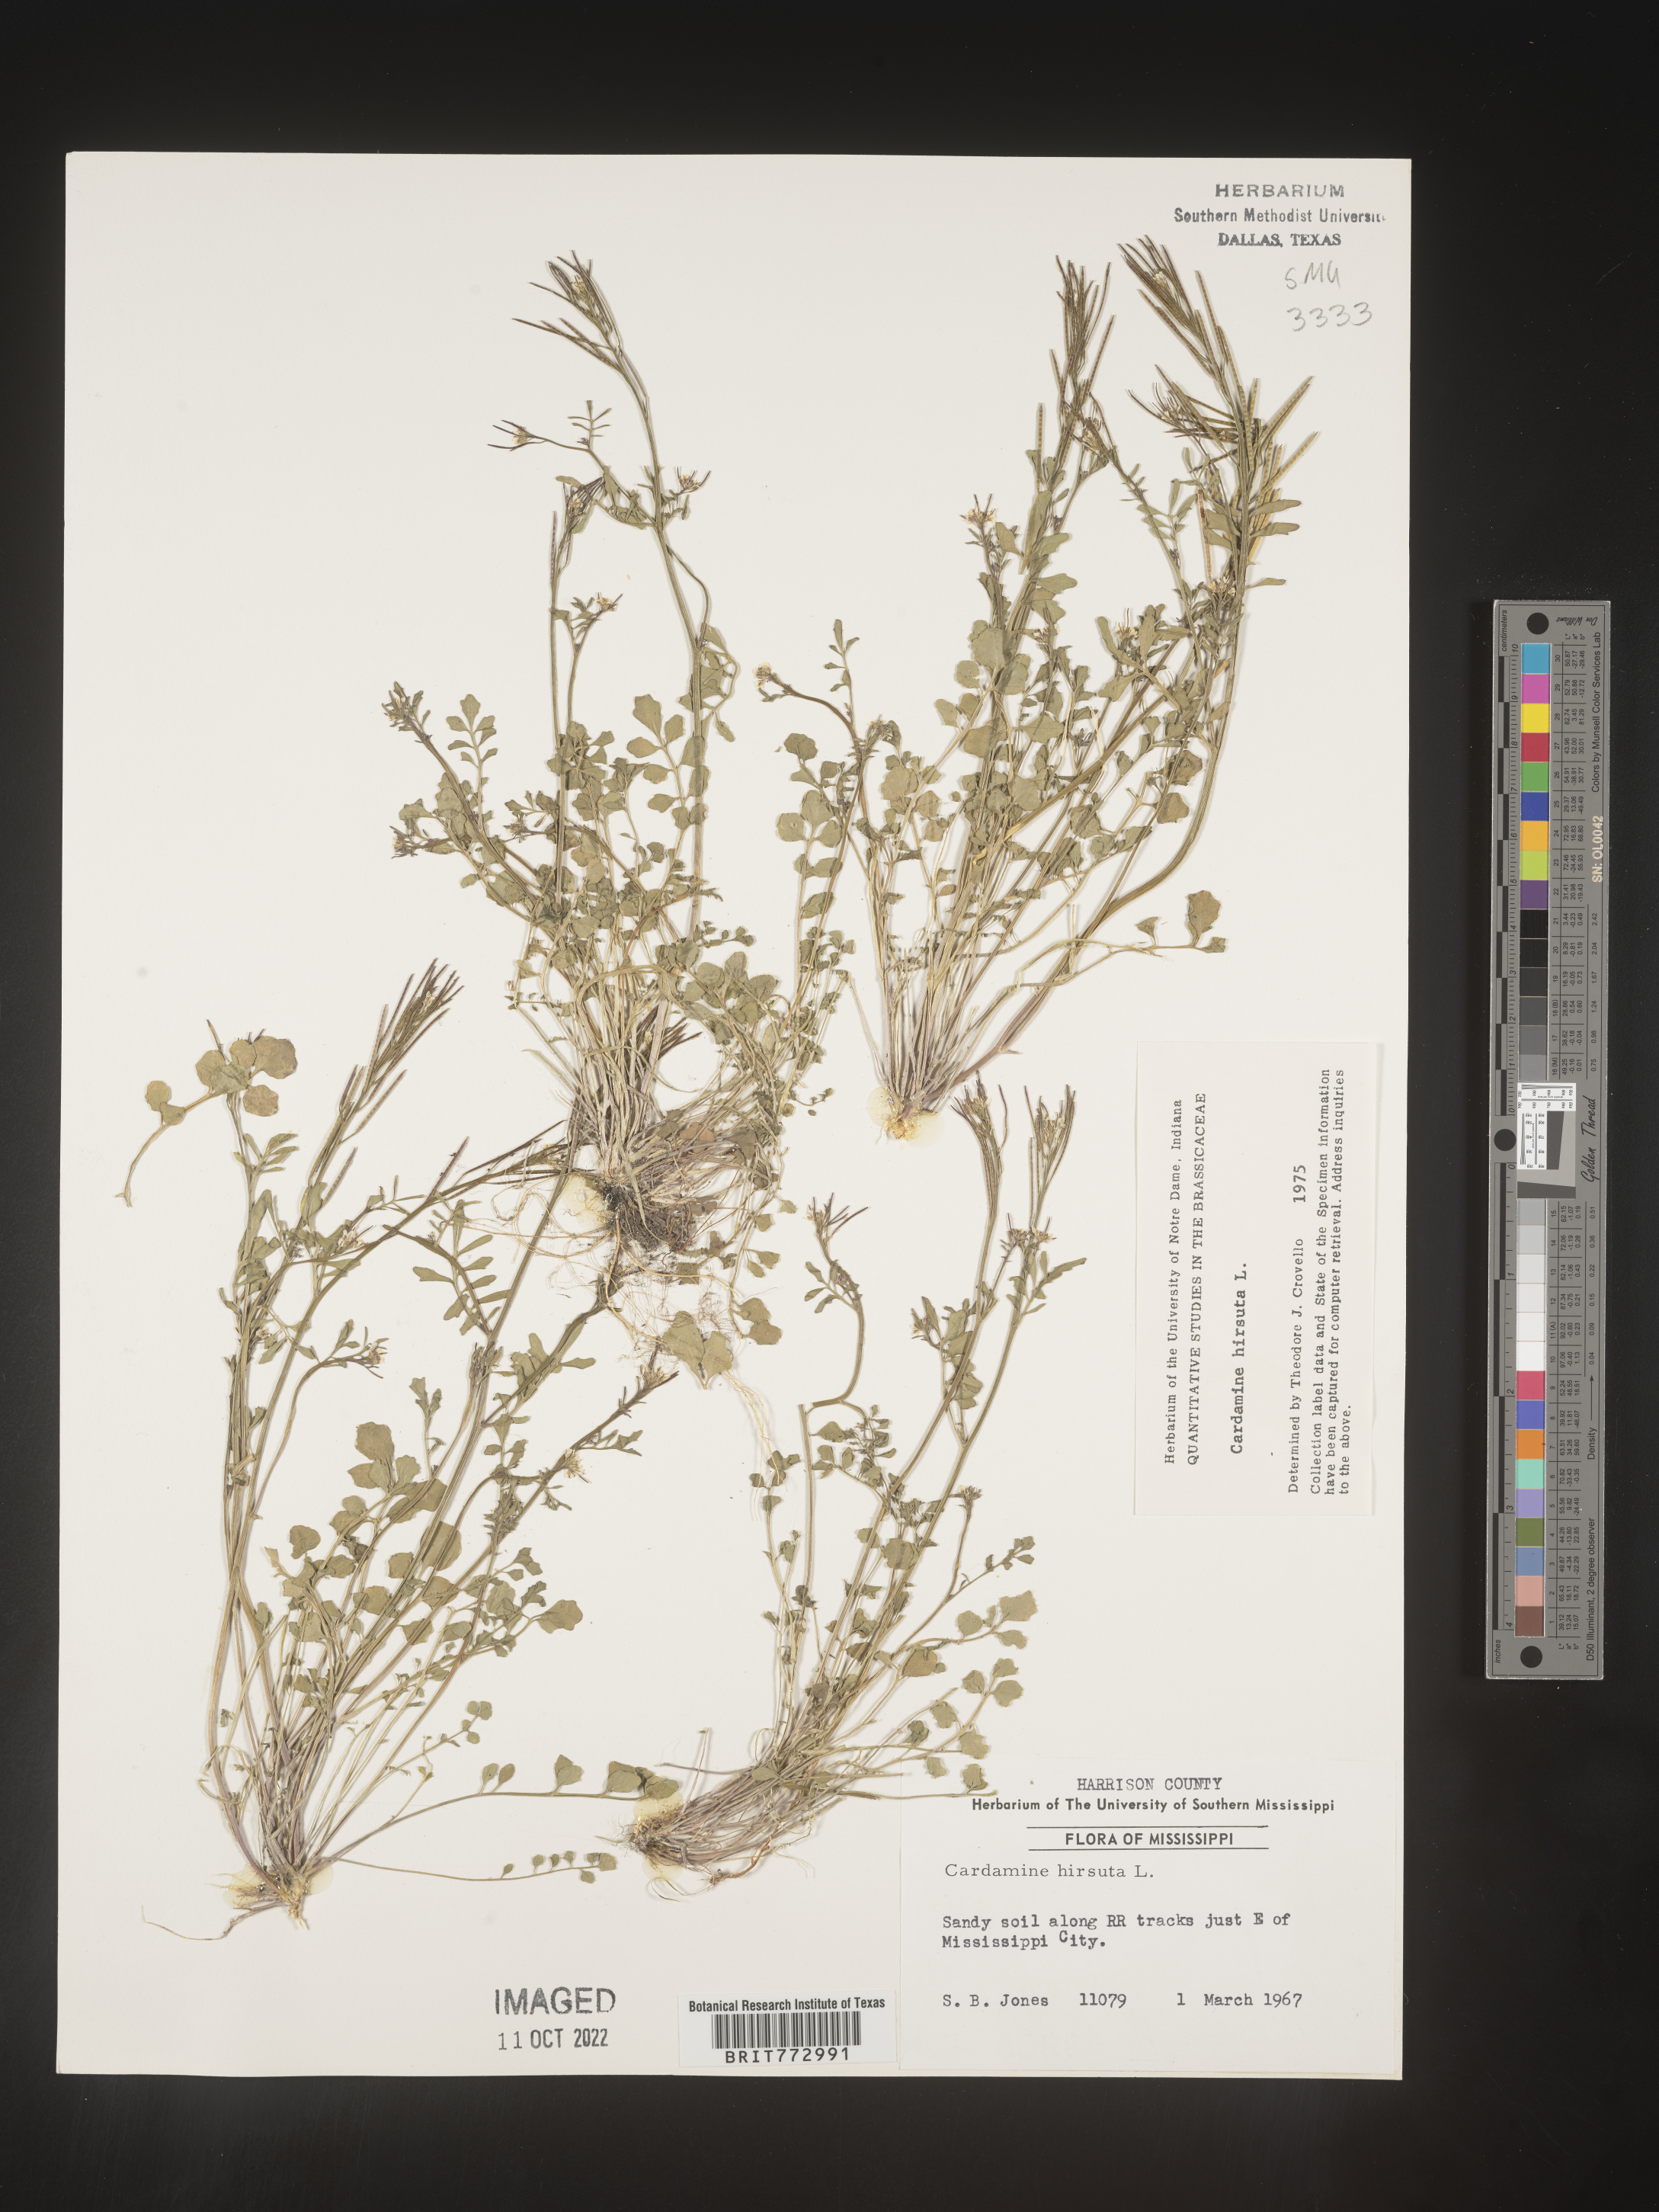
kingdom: Plantae
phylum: Tracheophyta
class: Magnoliopsida
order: Brassicales
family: Brassicaceae
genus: Cardamine
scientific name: Cardamine hirsuta
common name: Hairy bittercress
